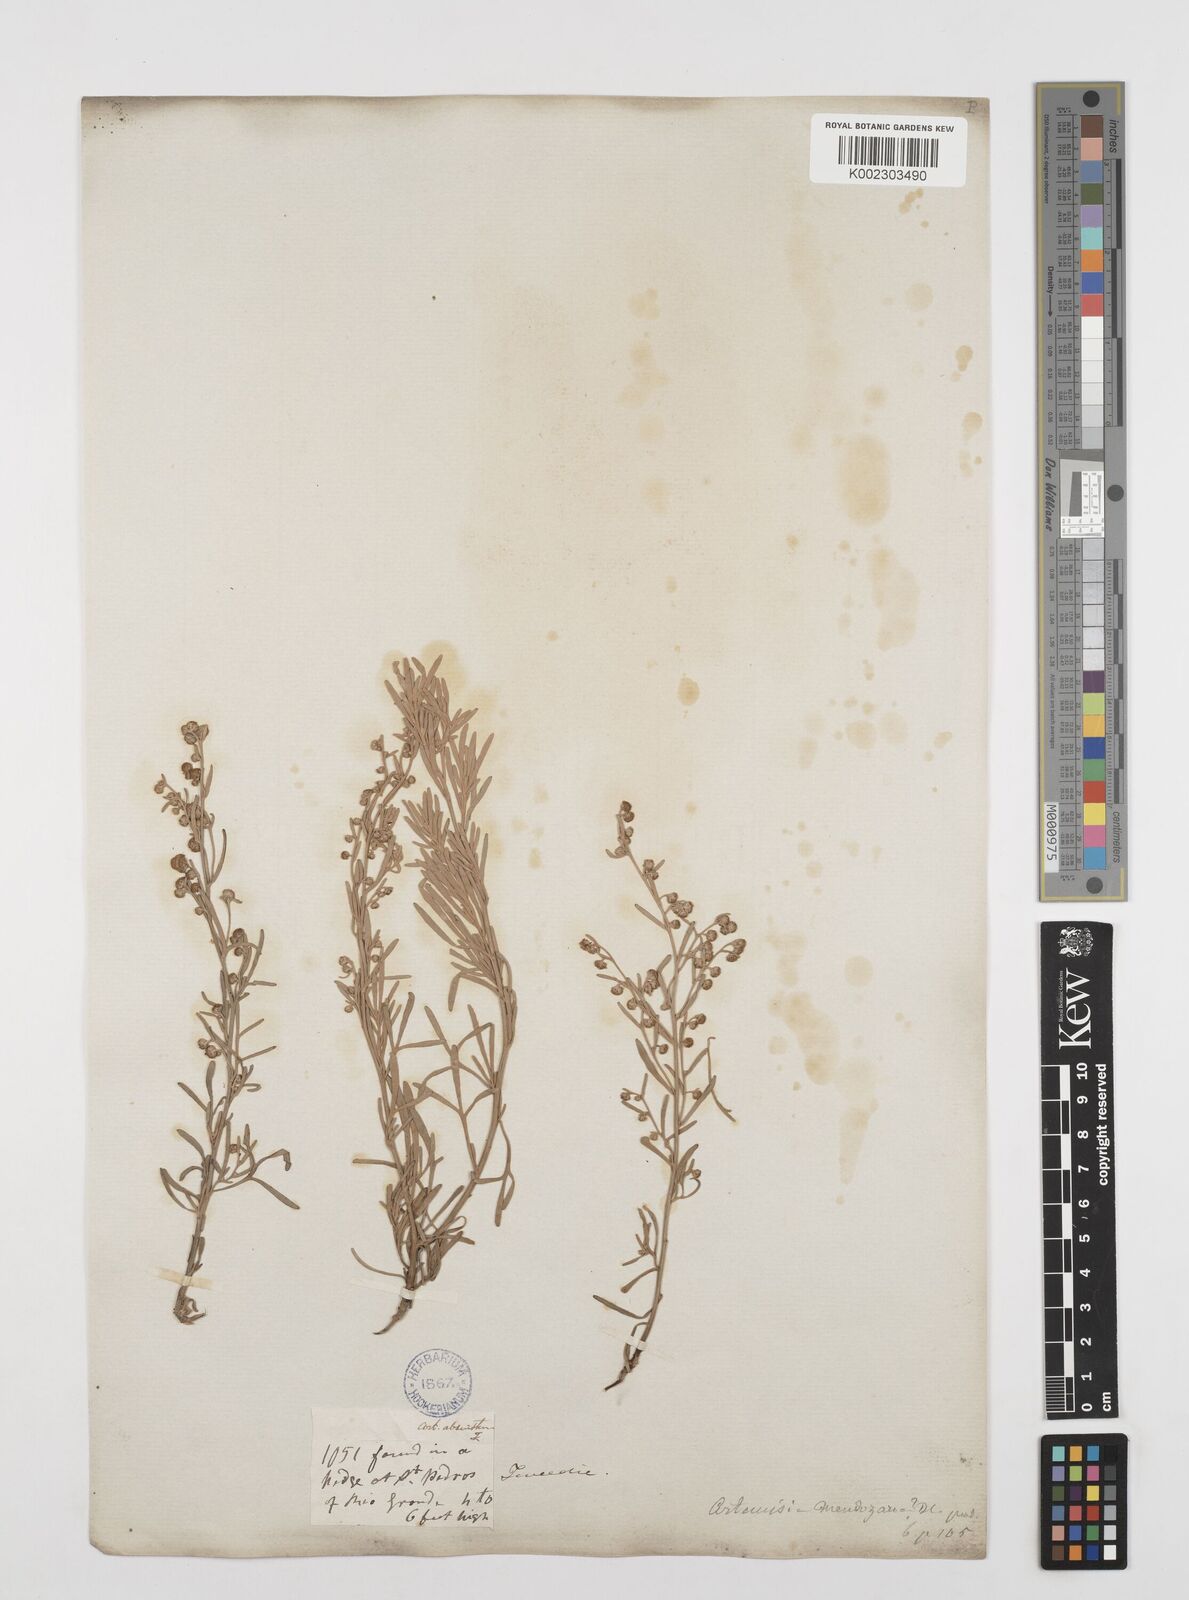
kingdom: Plantae
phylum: Tracheophyta
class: Magnoliopsida
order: Asterales
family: Asteraceae
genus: Artemisia
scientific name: Artemisia mendozana
